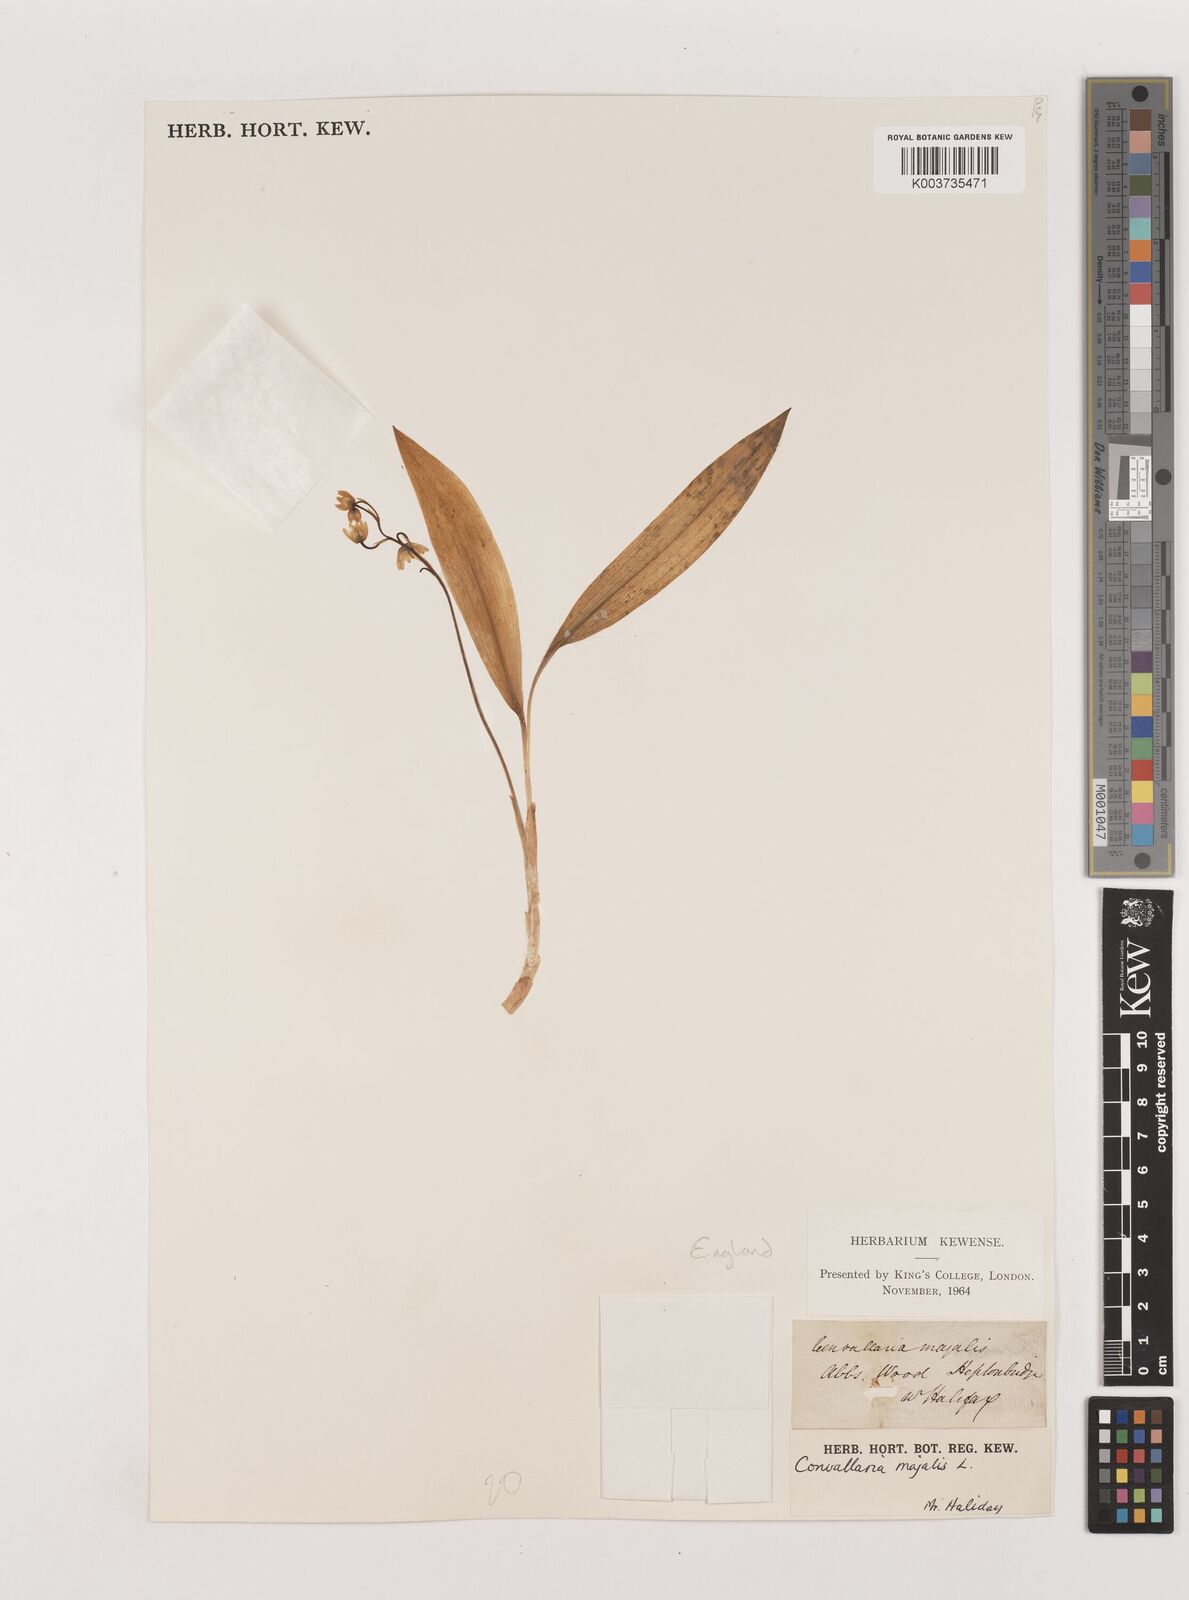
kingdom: Plantae
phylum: Tracheophyta
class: Liliopsida
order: Asparagales
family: Asparagaceae
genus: Convallaria
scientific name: Convallaria majalis
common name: Lily-of-the-valley
